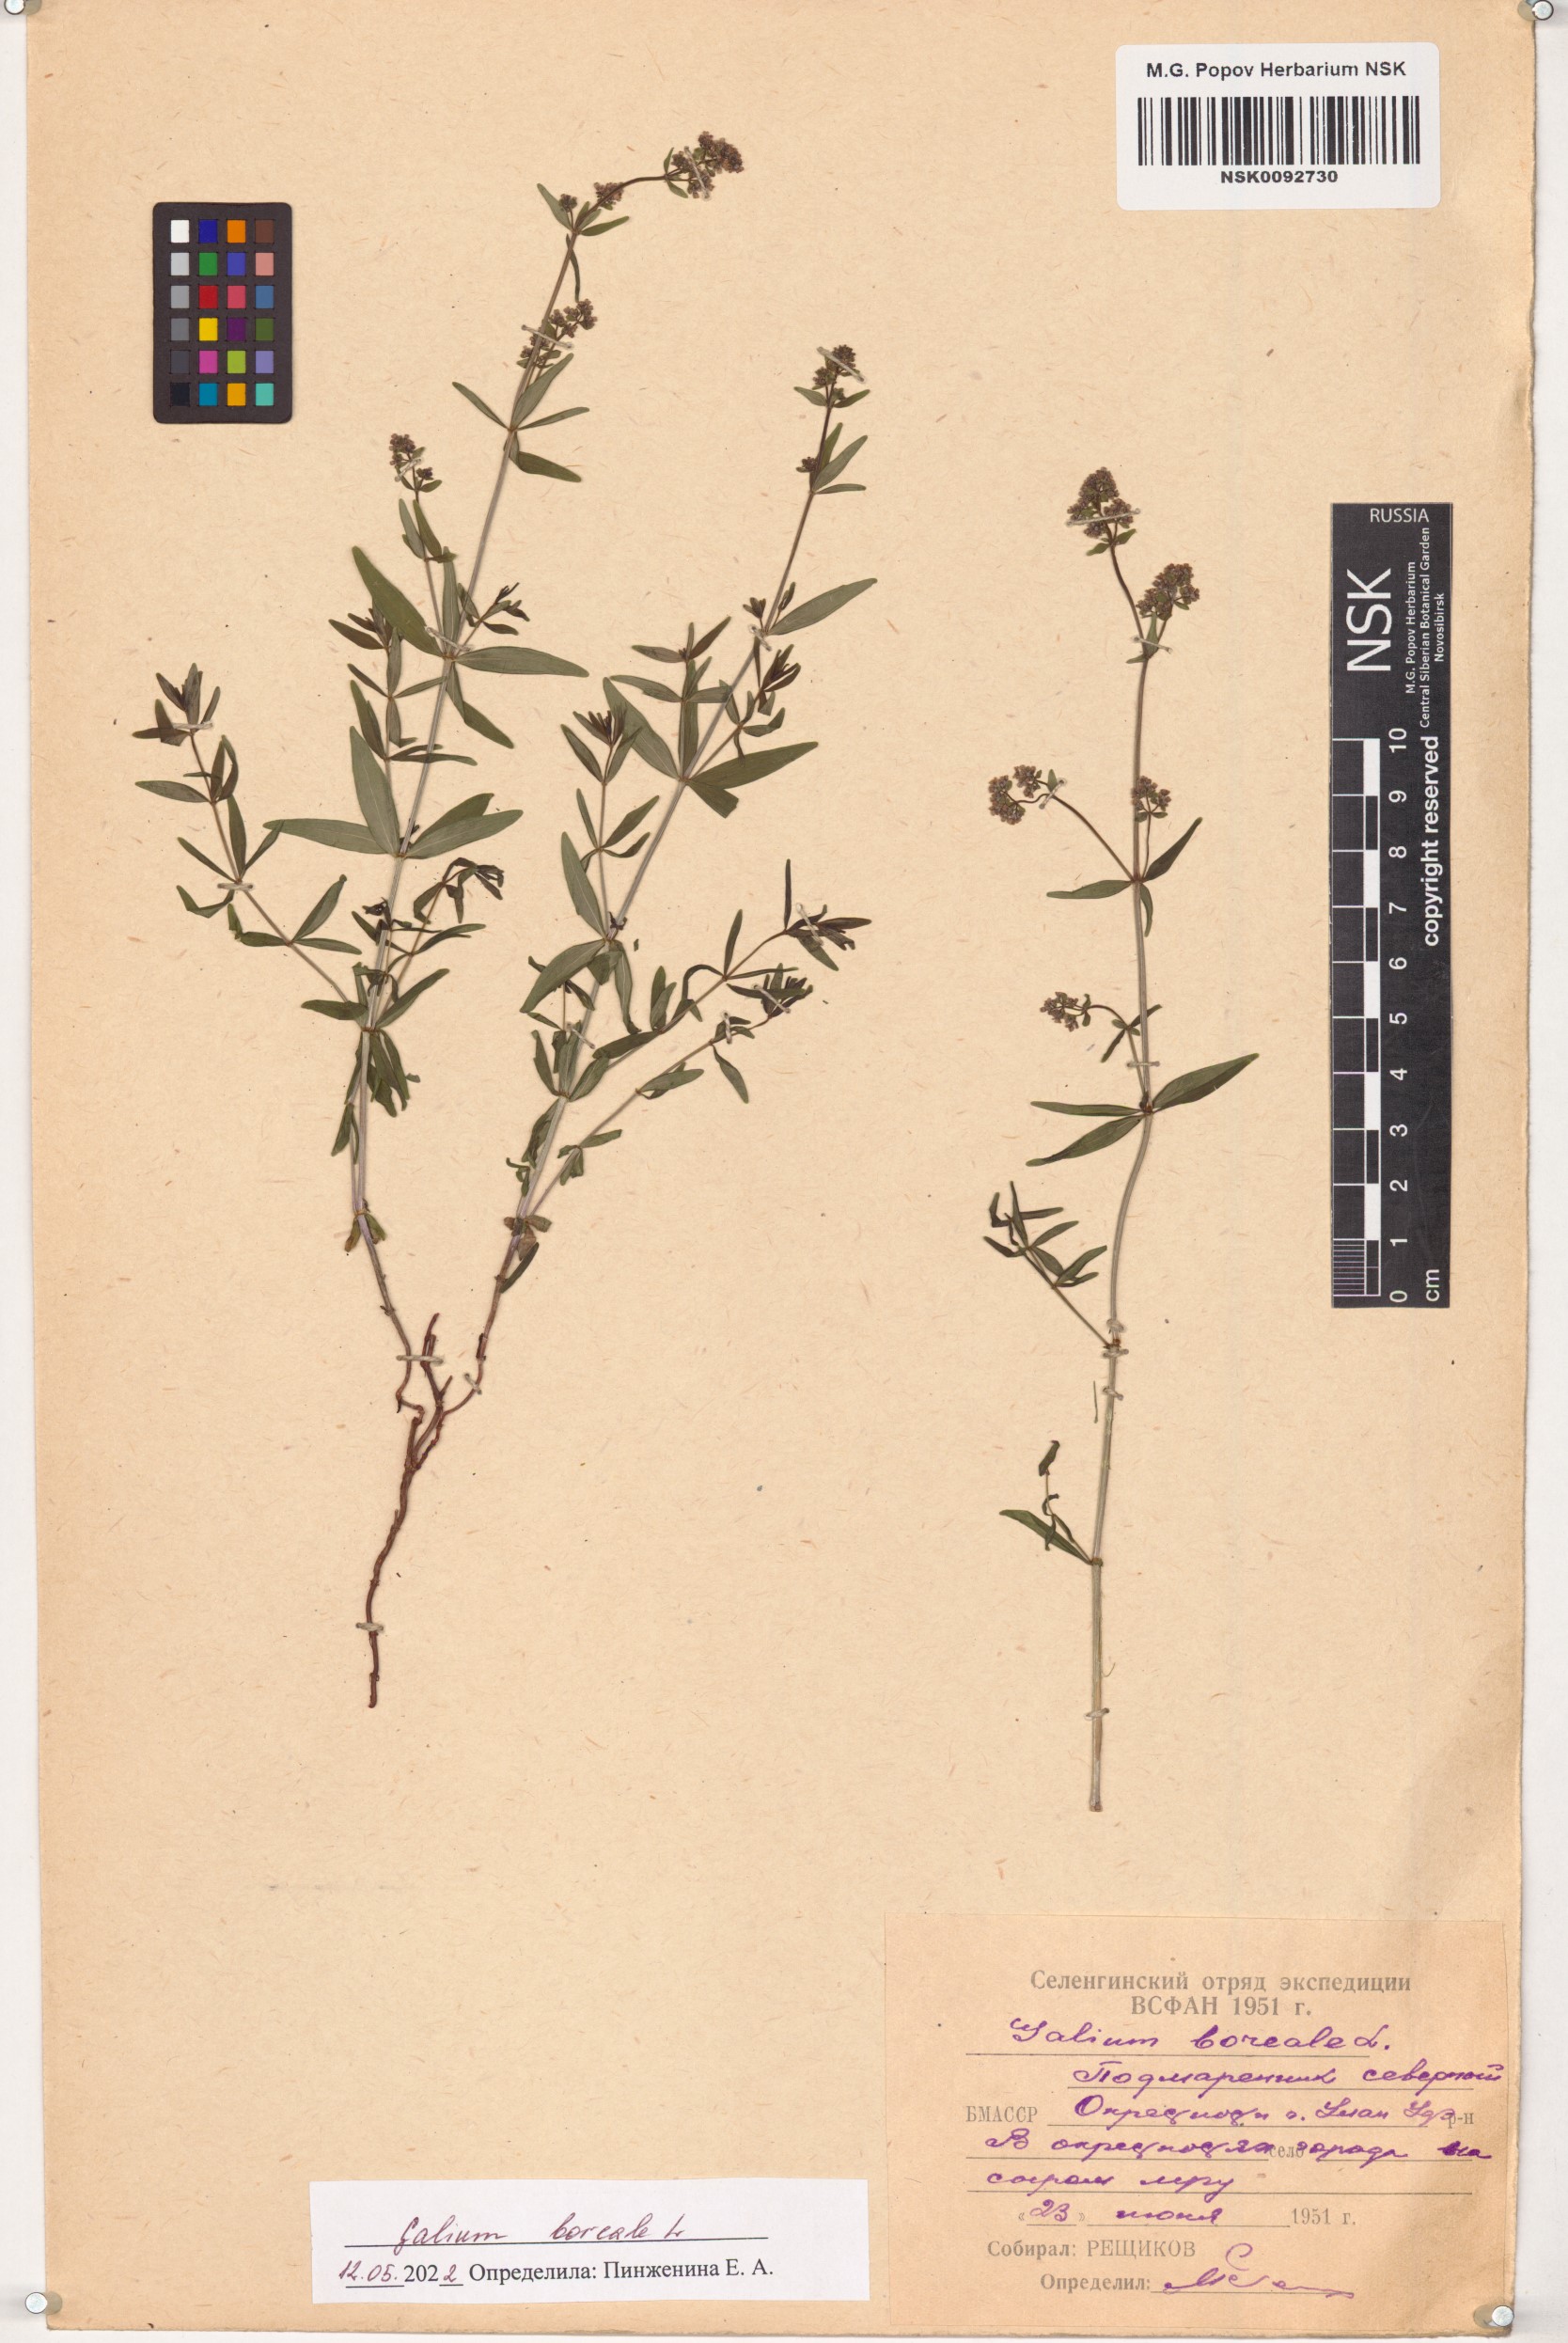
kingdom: Plantae
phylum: Tracheophyta
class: Magnoliopsida
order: Gentianales
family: Rubiaceae
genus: Galium
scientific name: Galium boreale
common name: Northern bedstraw
